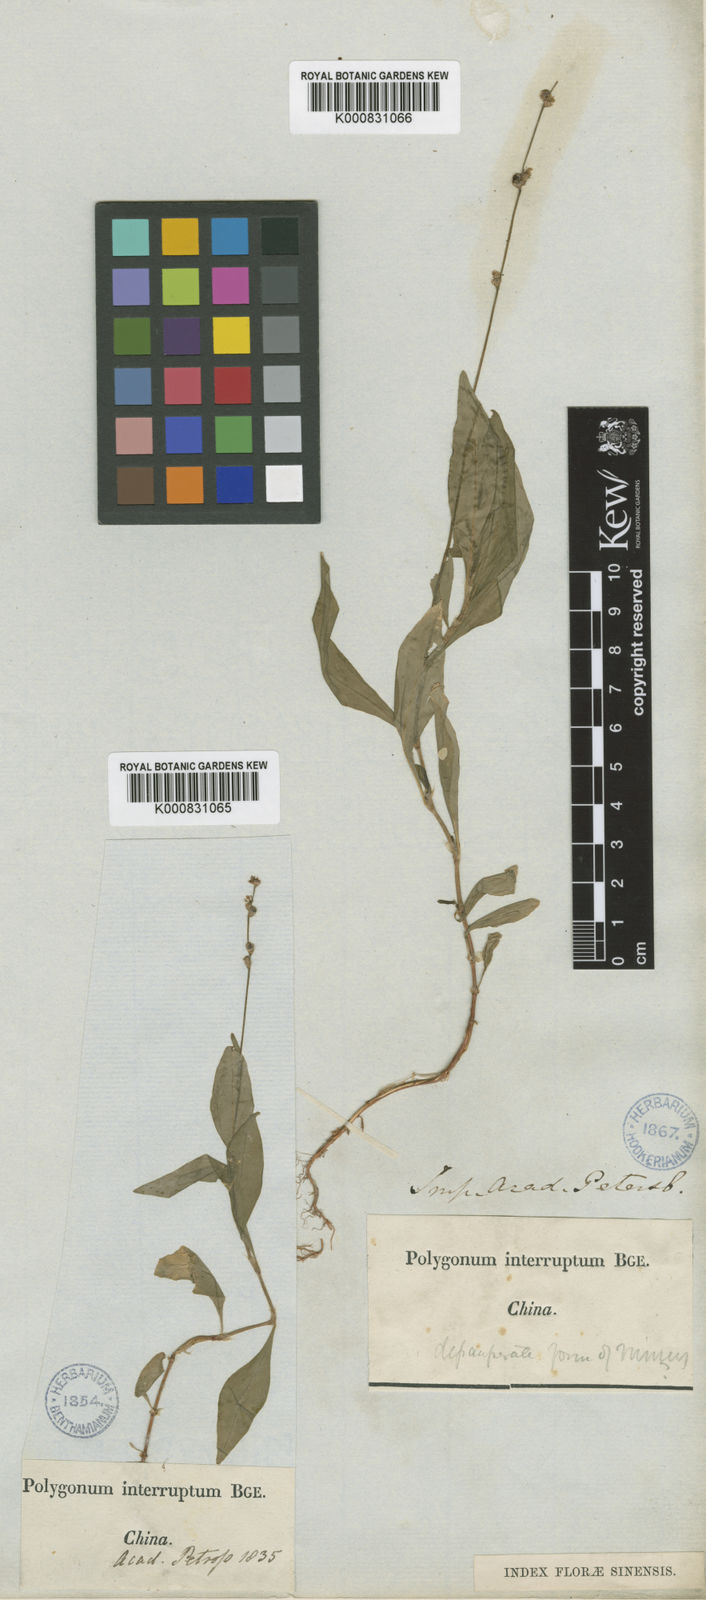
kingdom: Plantae
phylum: Tracheophyta
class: Magnoliopsida
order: Caryophyllales
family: Polygonaceae
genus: Persicaria
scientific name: Persicaria
